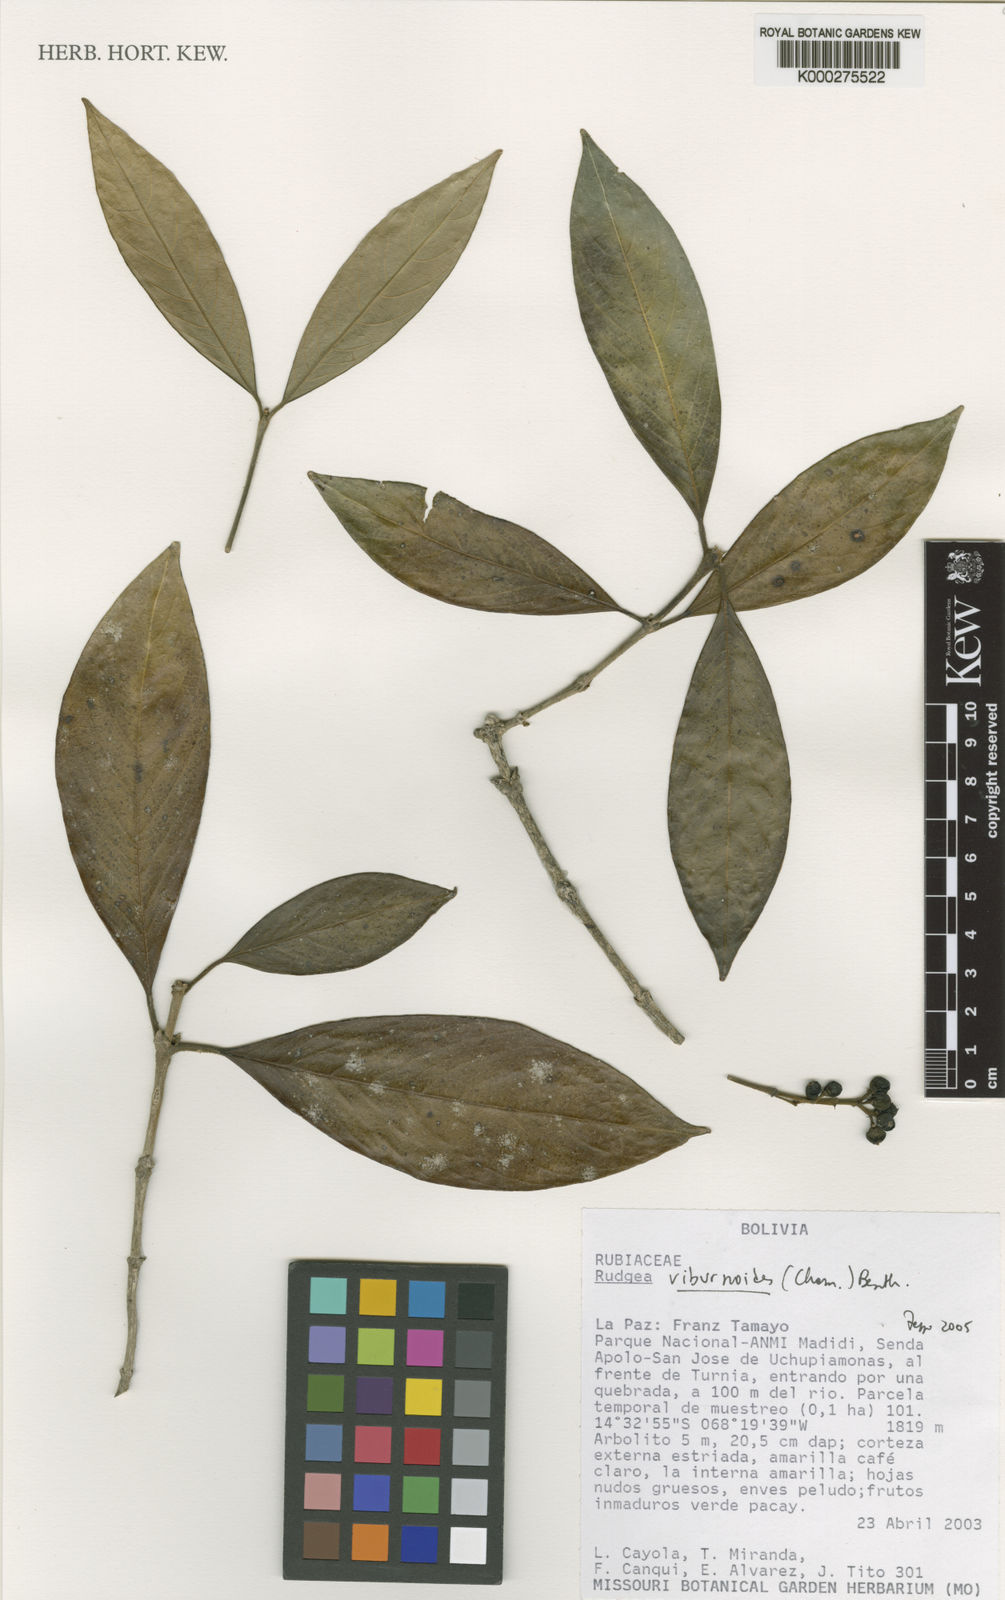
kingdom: Plantae
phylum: Tracheophyta
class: Magnoliopsida
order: Gentianales
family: Rubiaceae
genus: Rudgea
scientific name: Rudgea viburnoides
